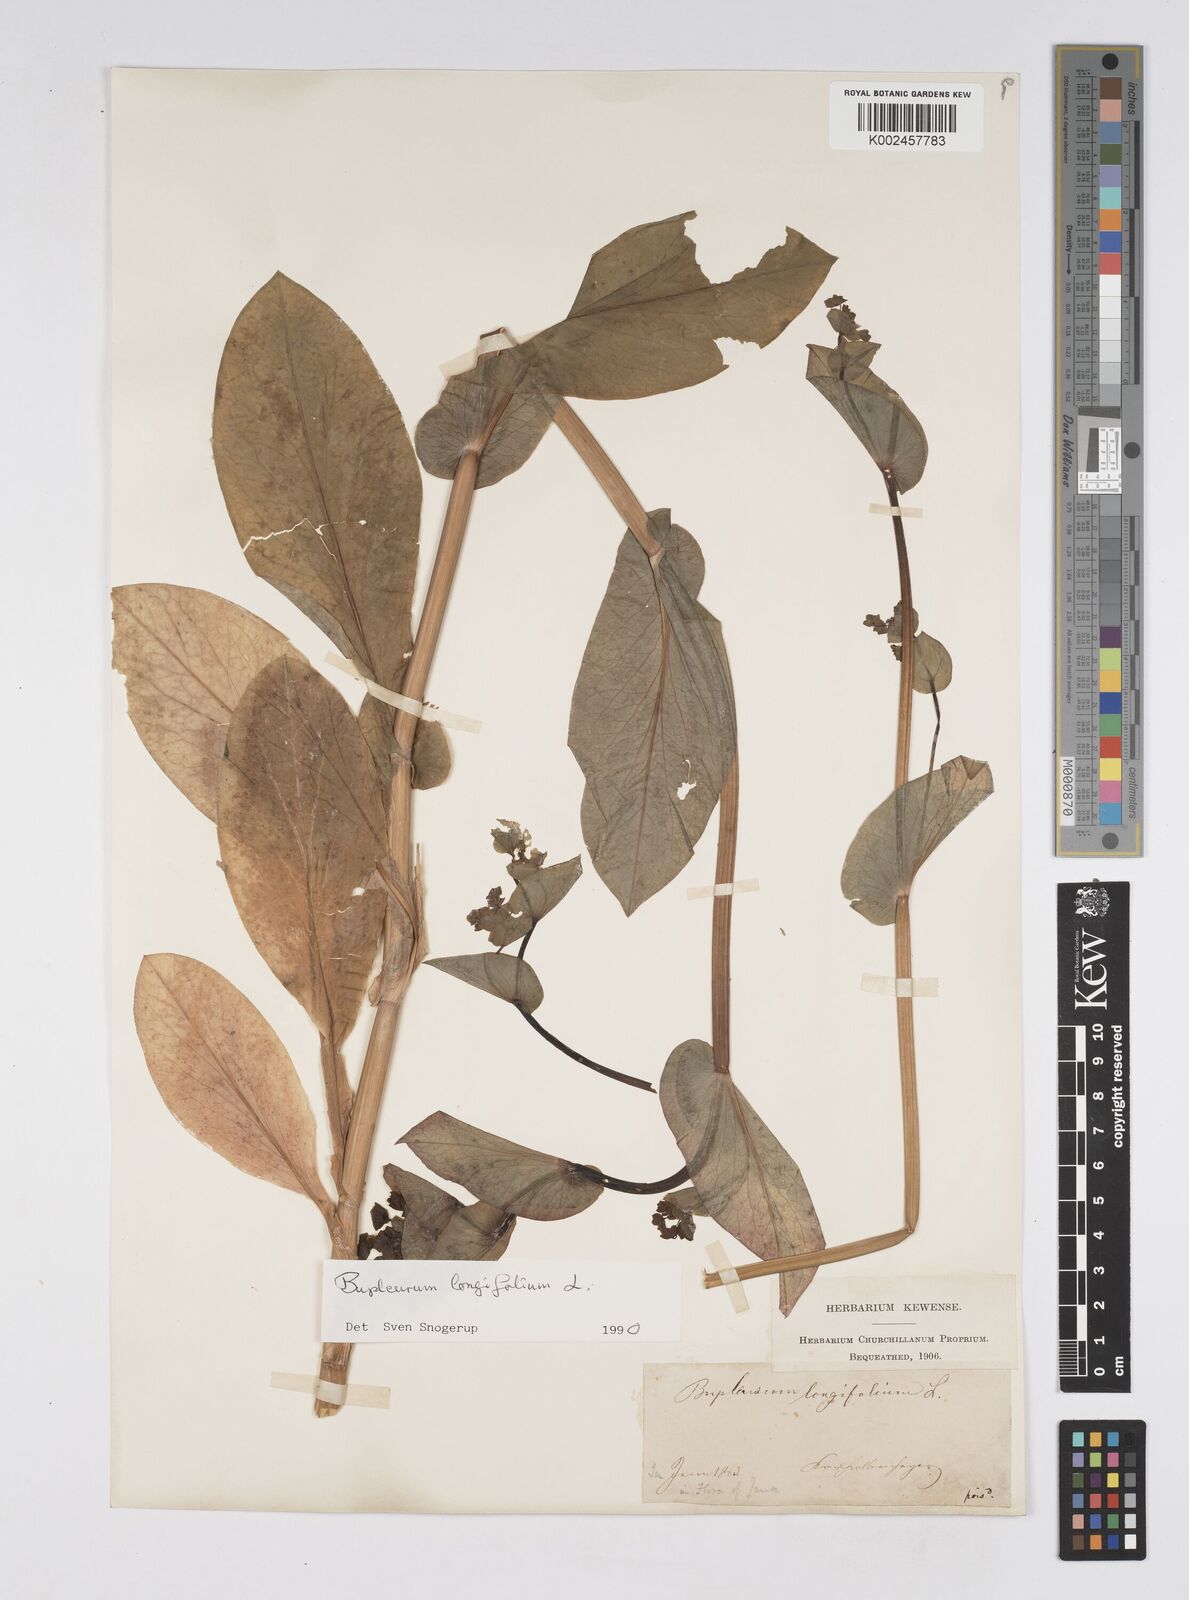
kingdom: Plantae
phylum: Tracheophyta
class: Magnoliopsida
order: Apiales
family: Apiaceae
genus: Bupleurum
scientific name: Bupleurum longifolium
